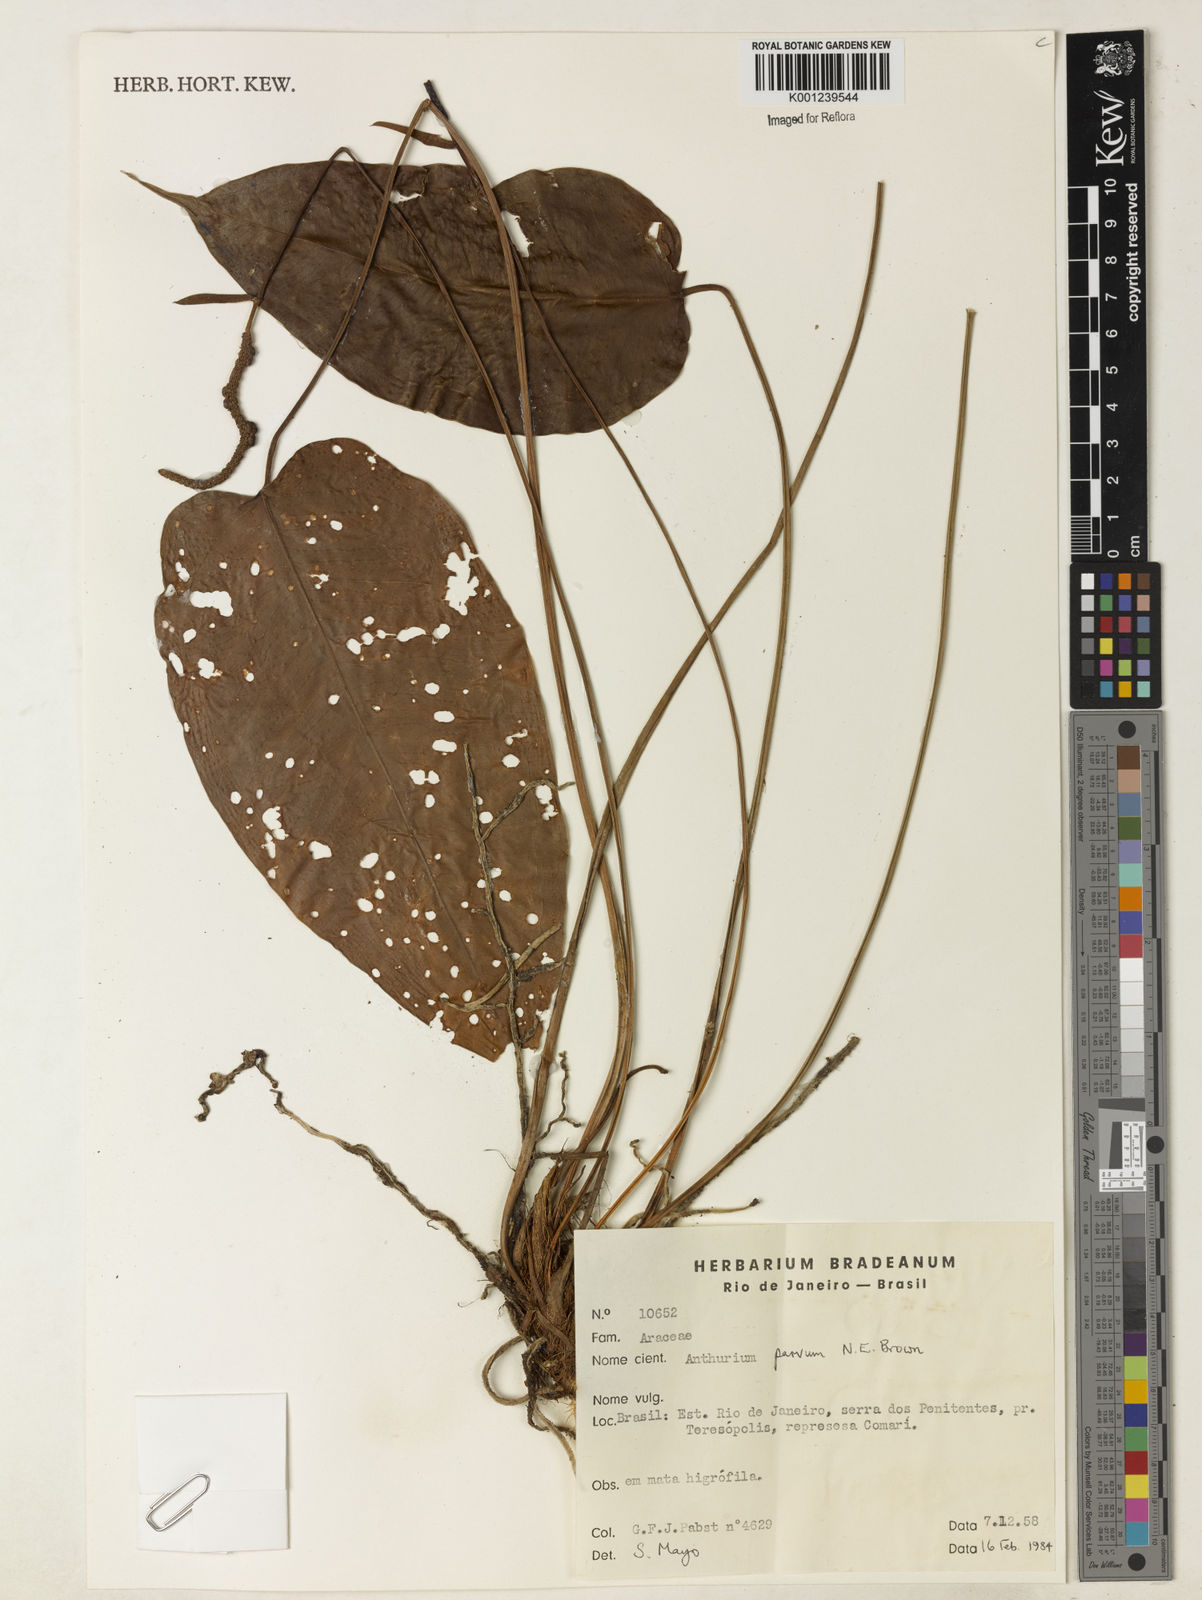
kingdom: Plantae
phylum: Tracheophyta
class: Liliopsida
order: Alismatales
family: Araceae
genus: Anthurium
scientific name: Anthurium parvum
